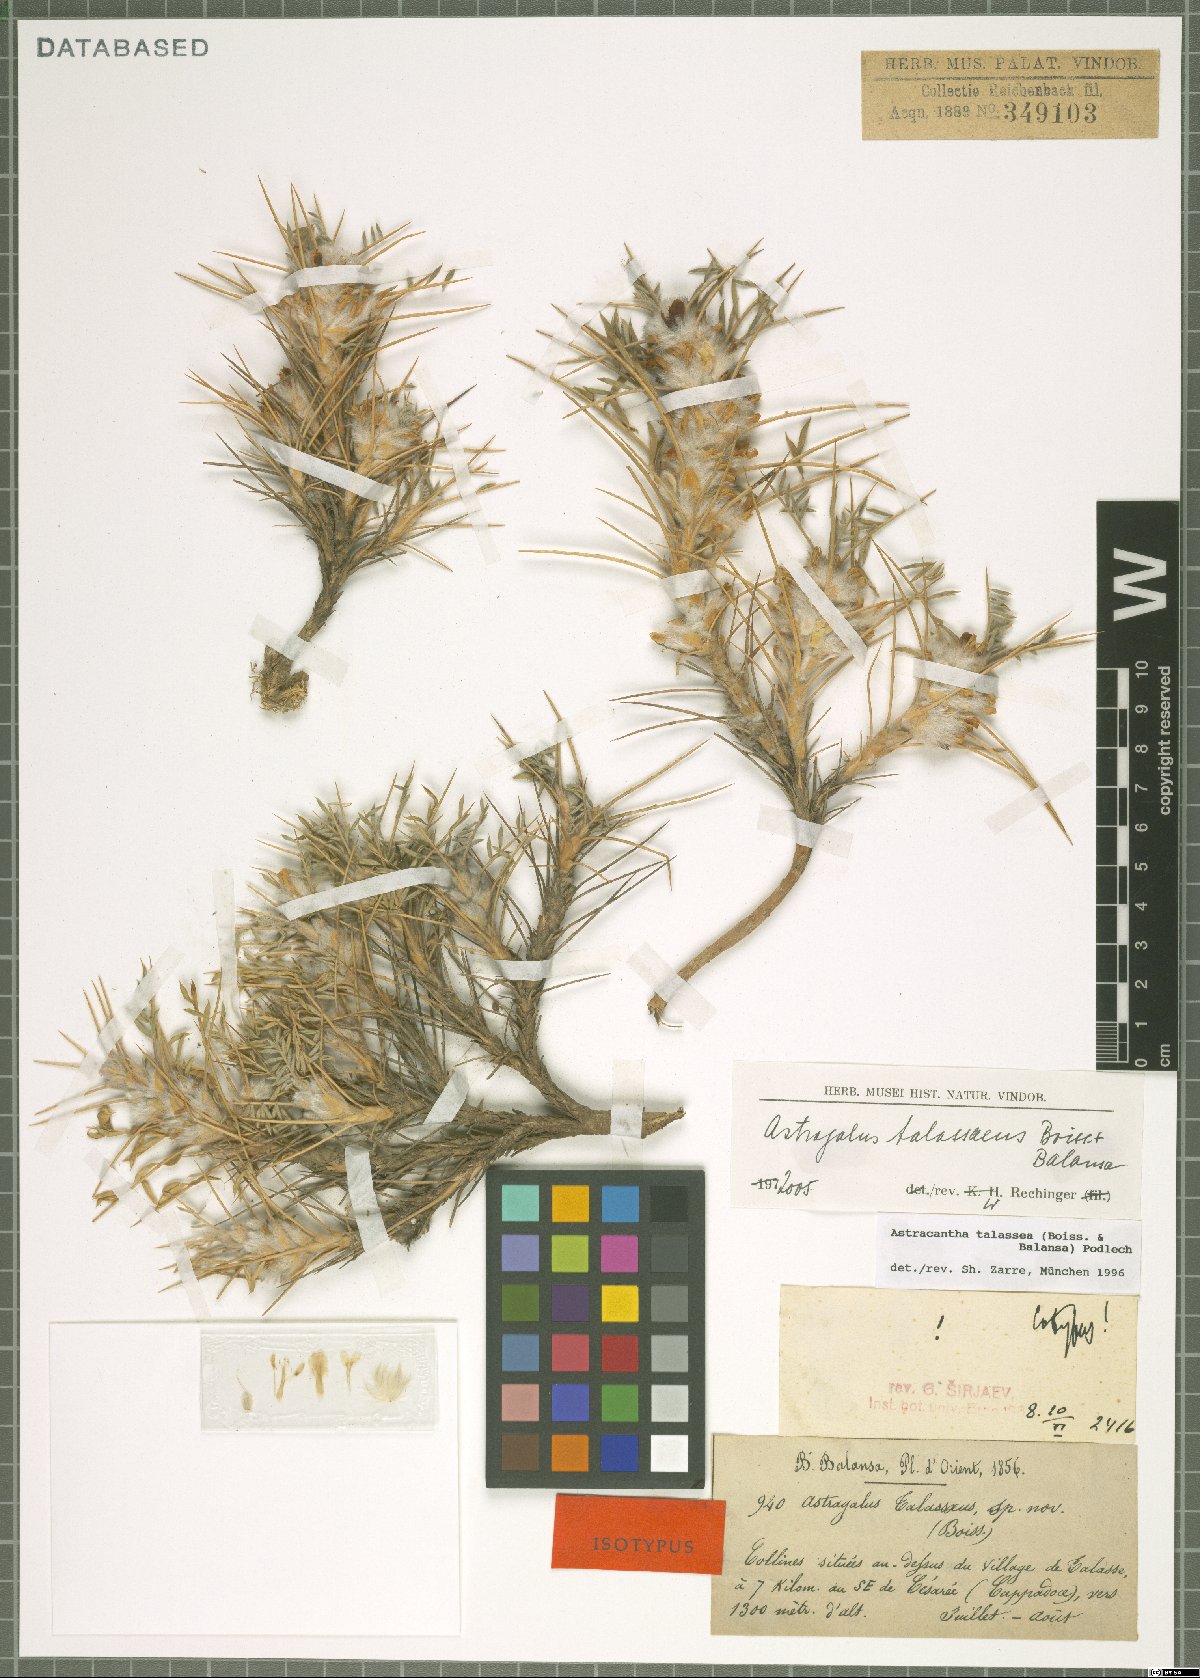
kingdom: Plantae
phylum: Tracheophyta
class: Magnoliopsida
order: Fabales
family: Fabaceae
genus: Astragalus
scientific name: Astragalus talasseus
